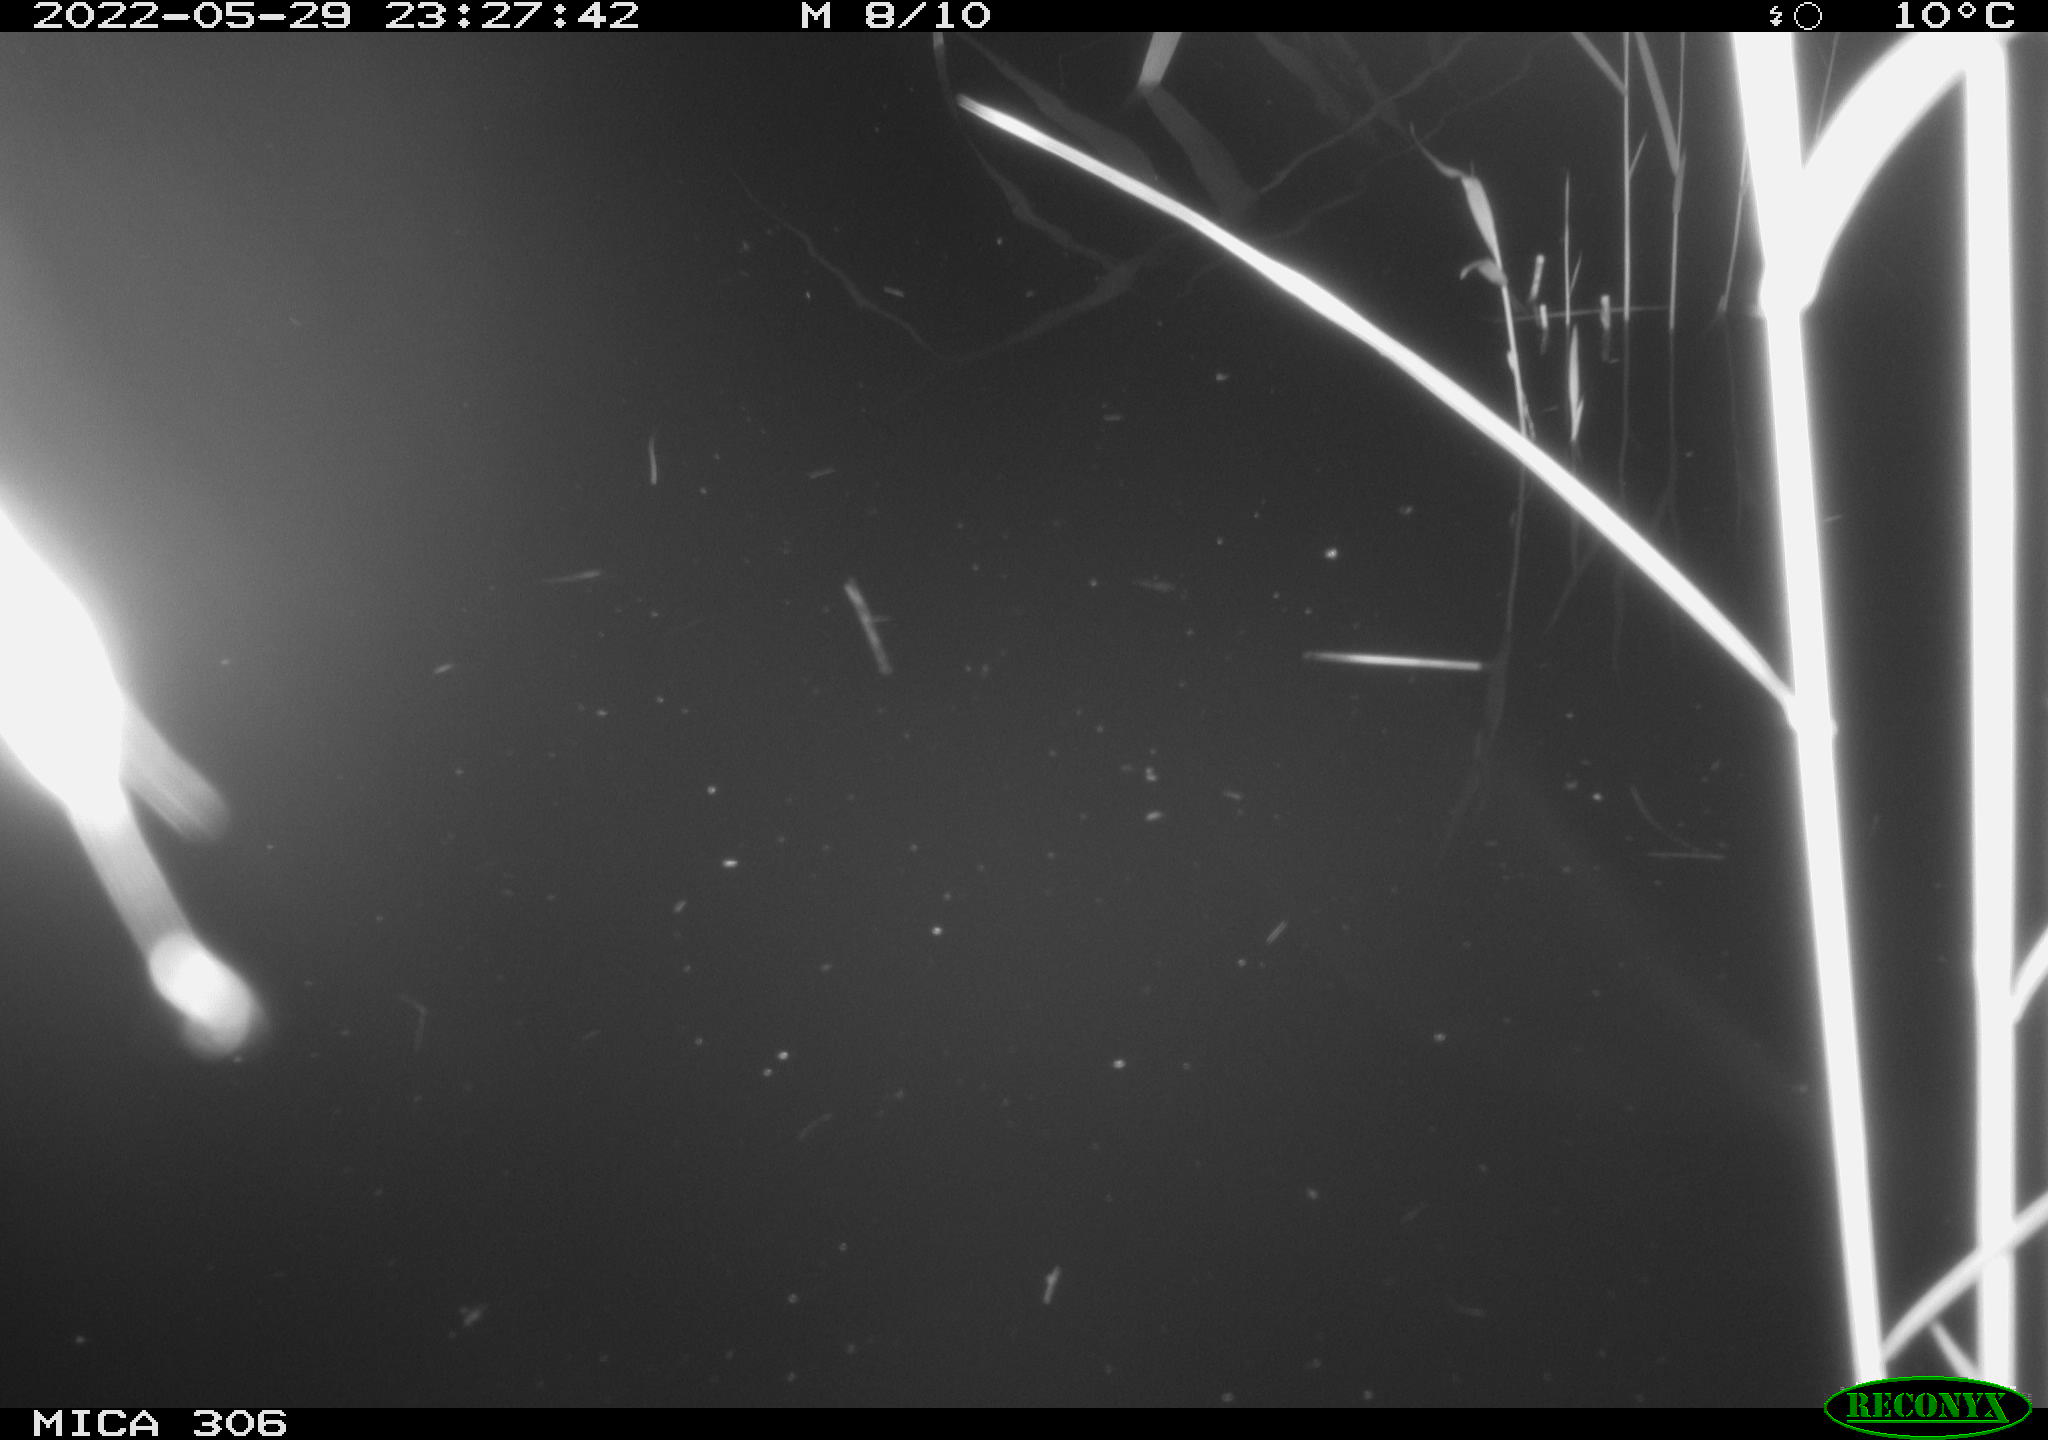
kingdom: Animalia
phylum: Chordata
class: Mammalia
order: Rodentia
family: Cricetidae
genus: Ondatra
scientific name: Ondatra zibethicus
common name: Muskrat
